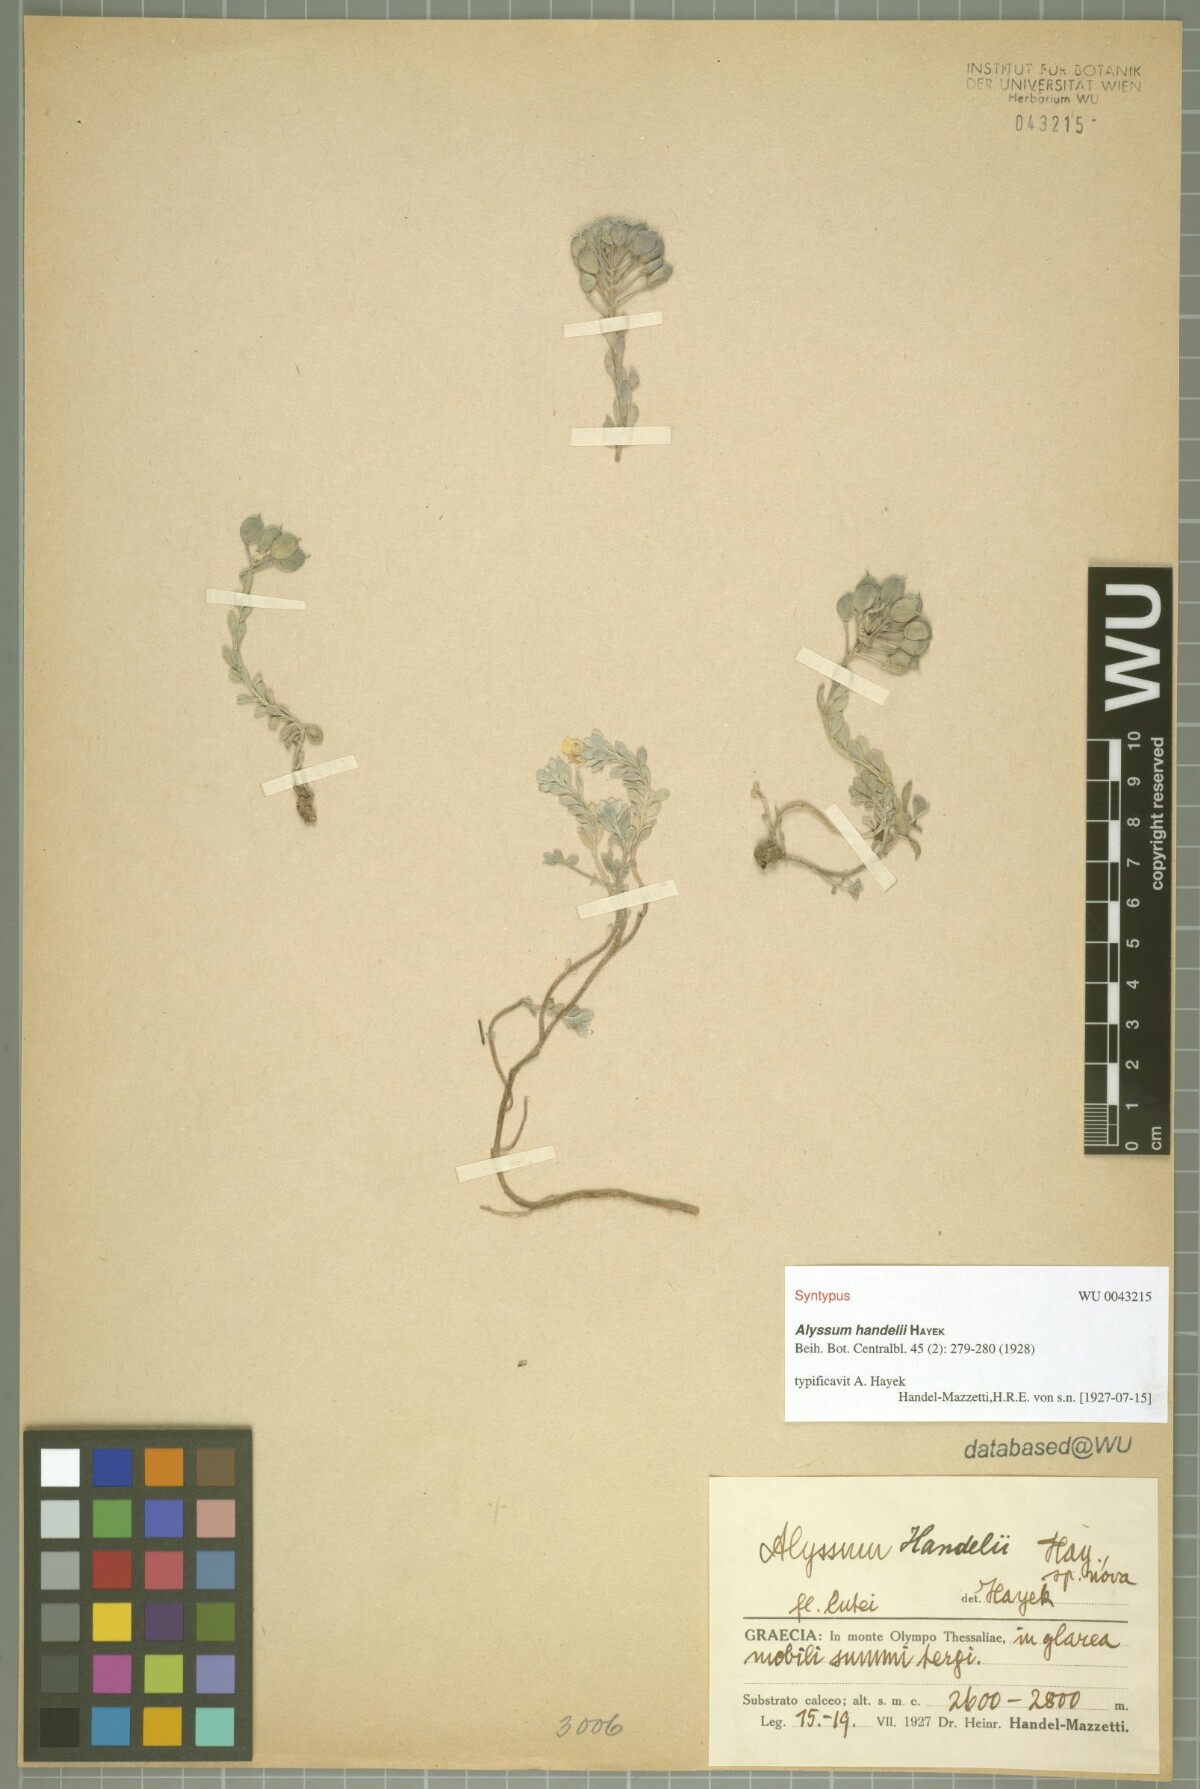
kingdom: Plantae
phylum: Tracheophyta
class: Magnoliopsida
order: Brassicales
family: Brassicaceae
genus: Alyssum
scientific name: Alyssum handelii
